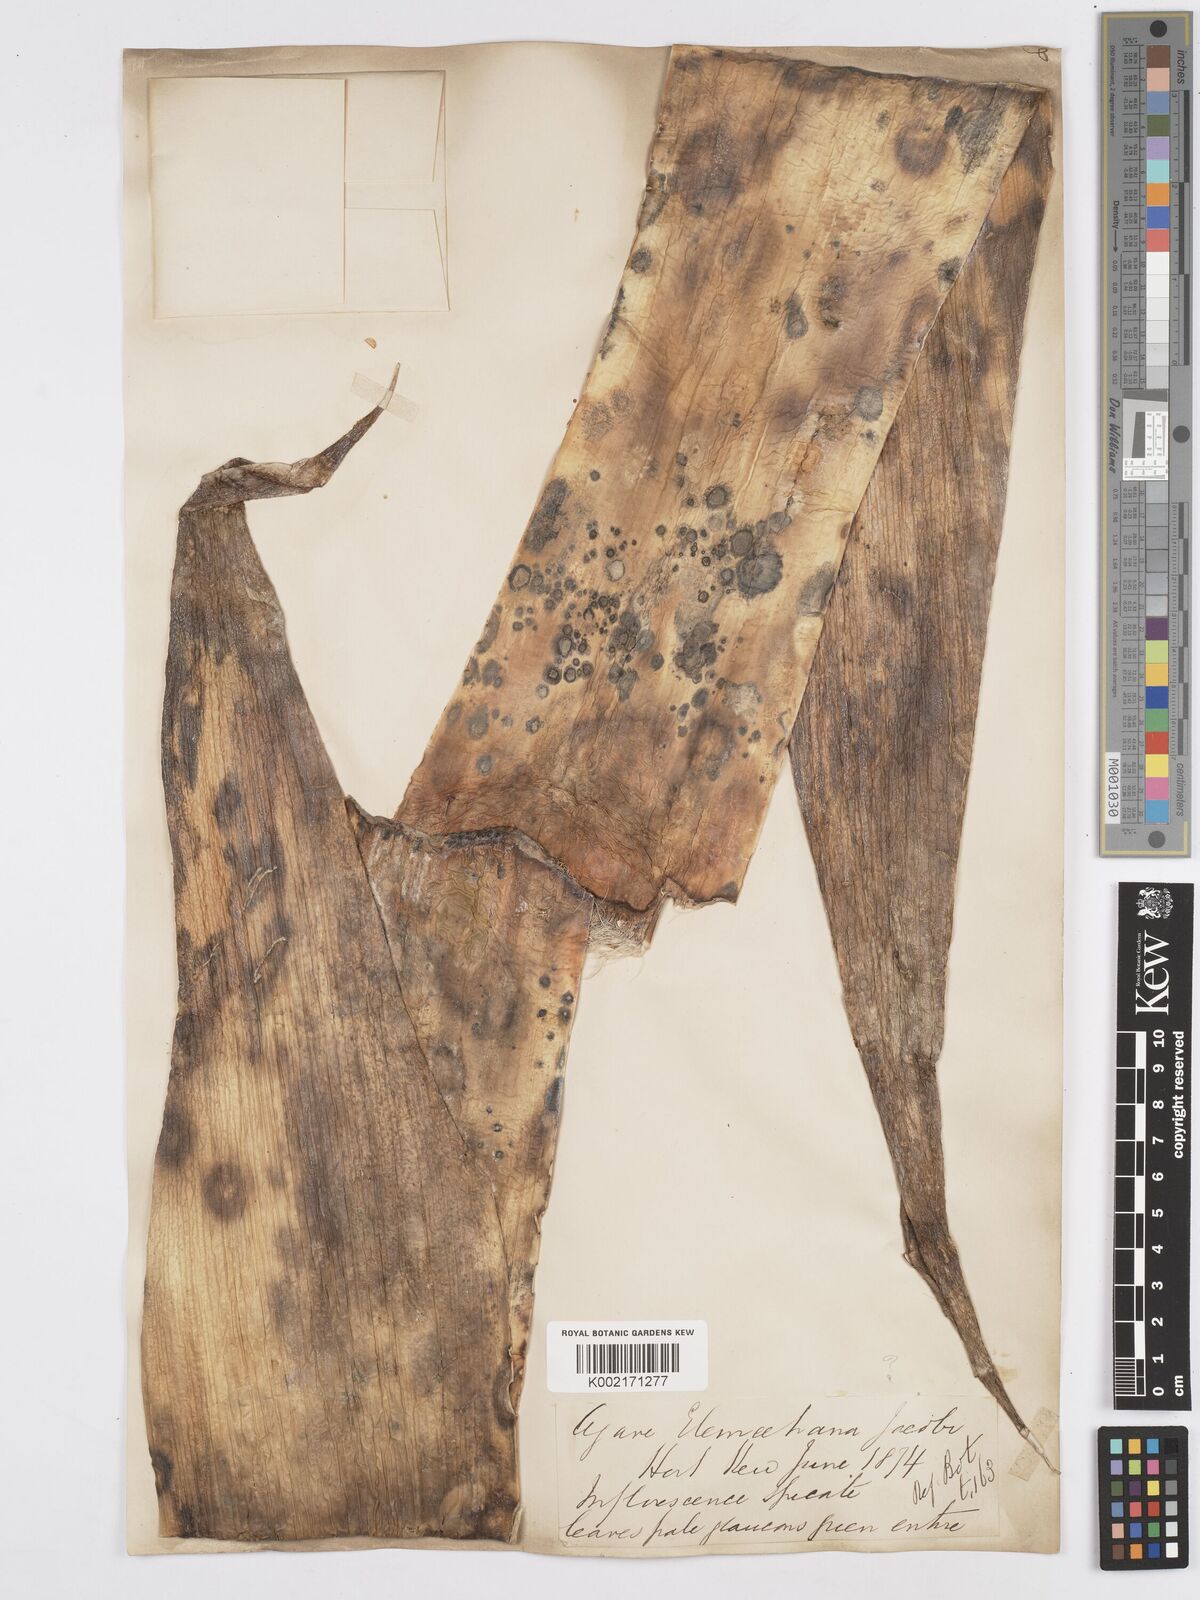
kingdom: Plantae
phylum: Tracheophyta
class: Liliopsida
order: Asparagales
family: Asparagaceae
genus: Agave
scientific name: Agave ellemeetiana
